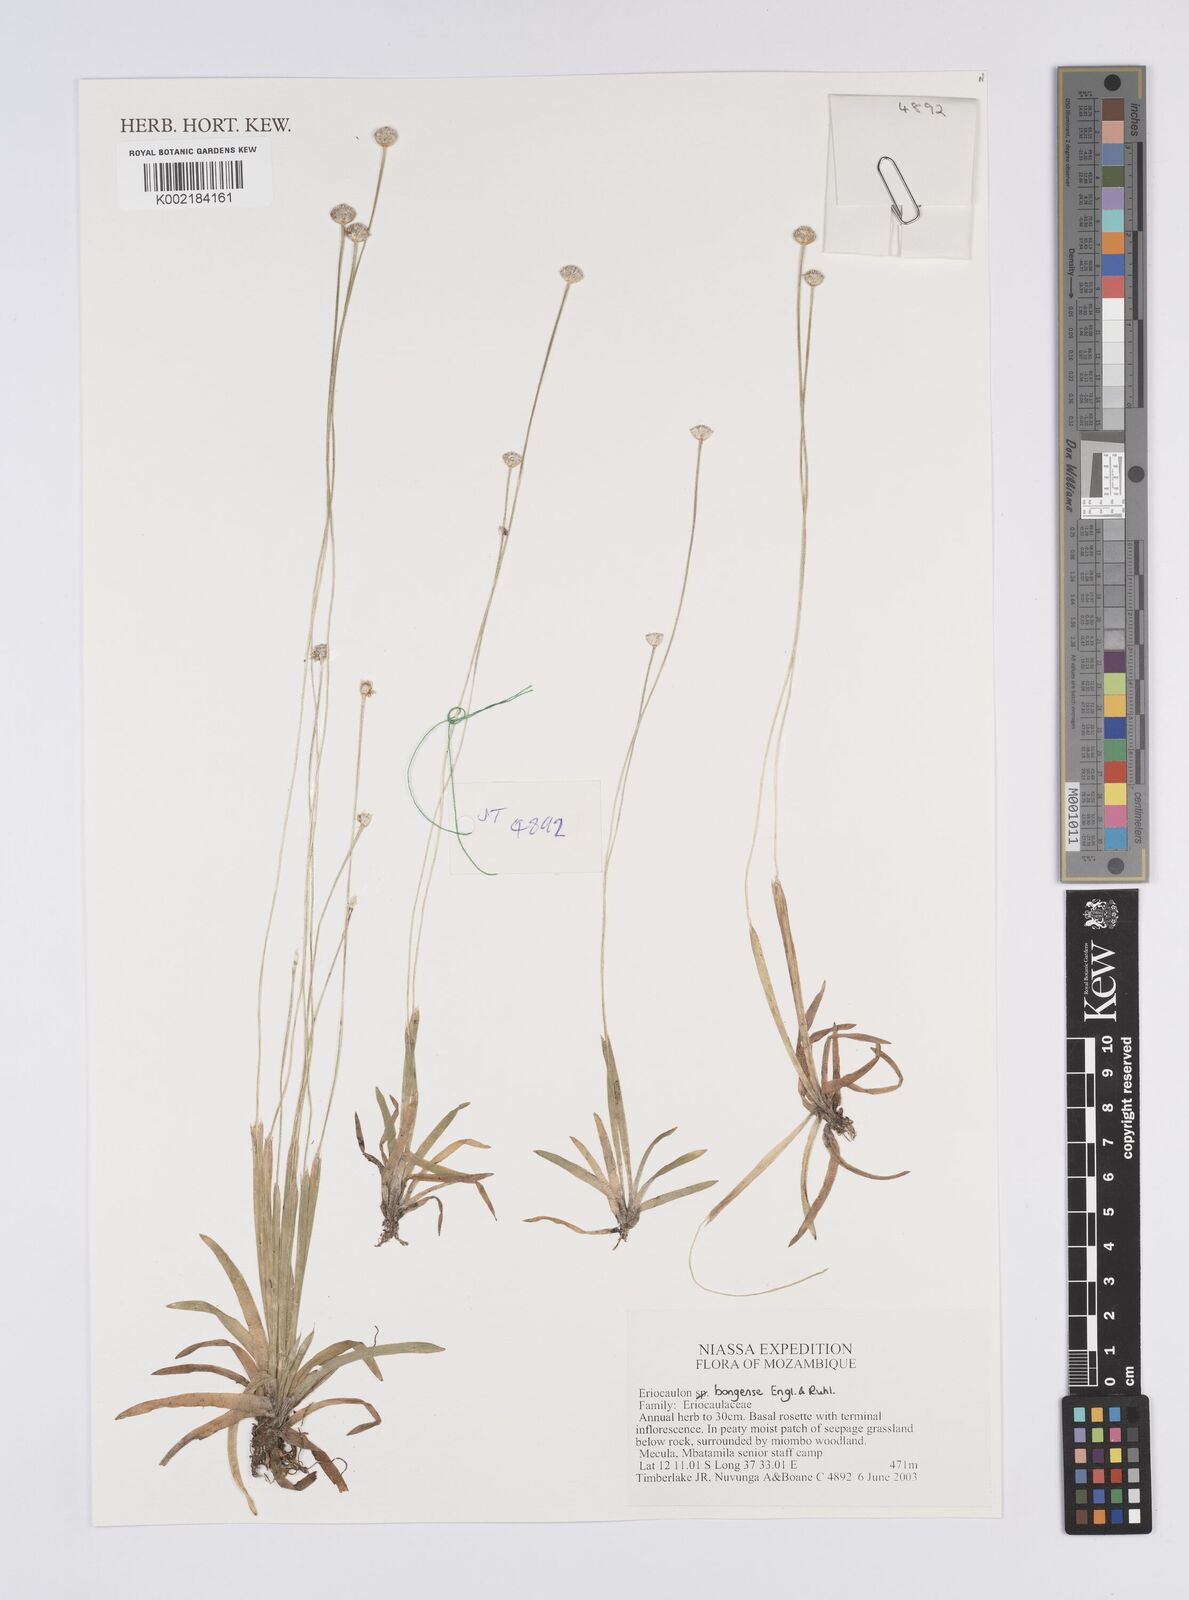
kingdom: Plantae
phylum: Tracheophyta
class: Liliopsida
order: Poales
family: Eriocaulaceae
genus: Eriocaulon
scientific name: Eriocaulon bongense
